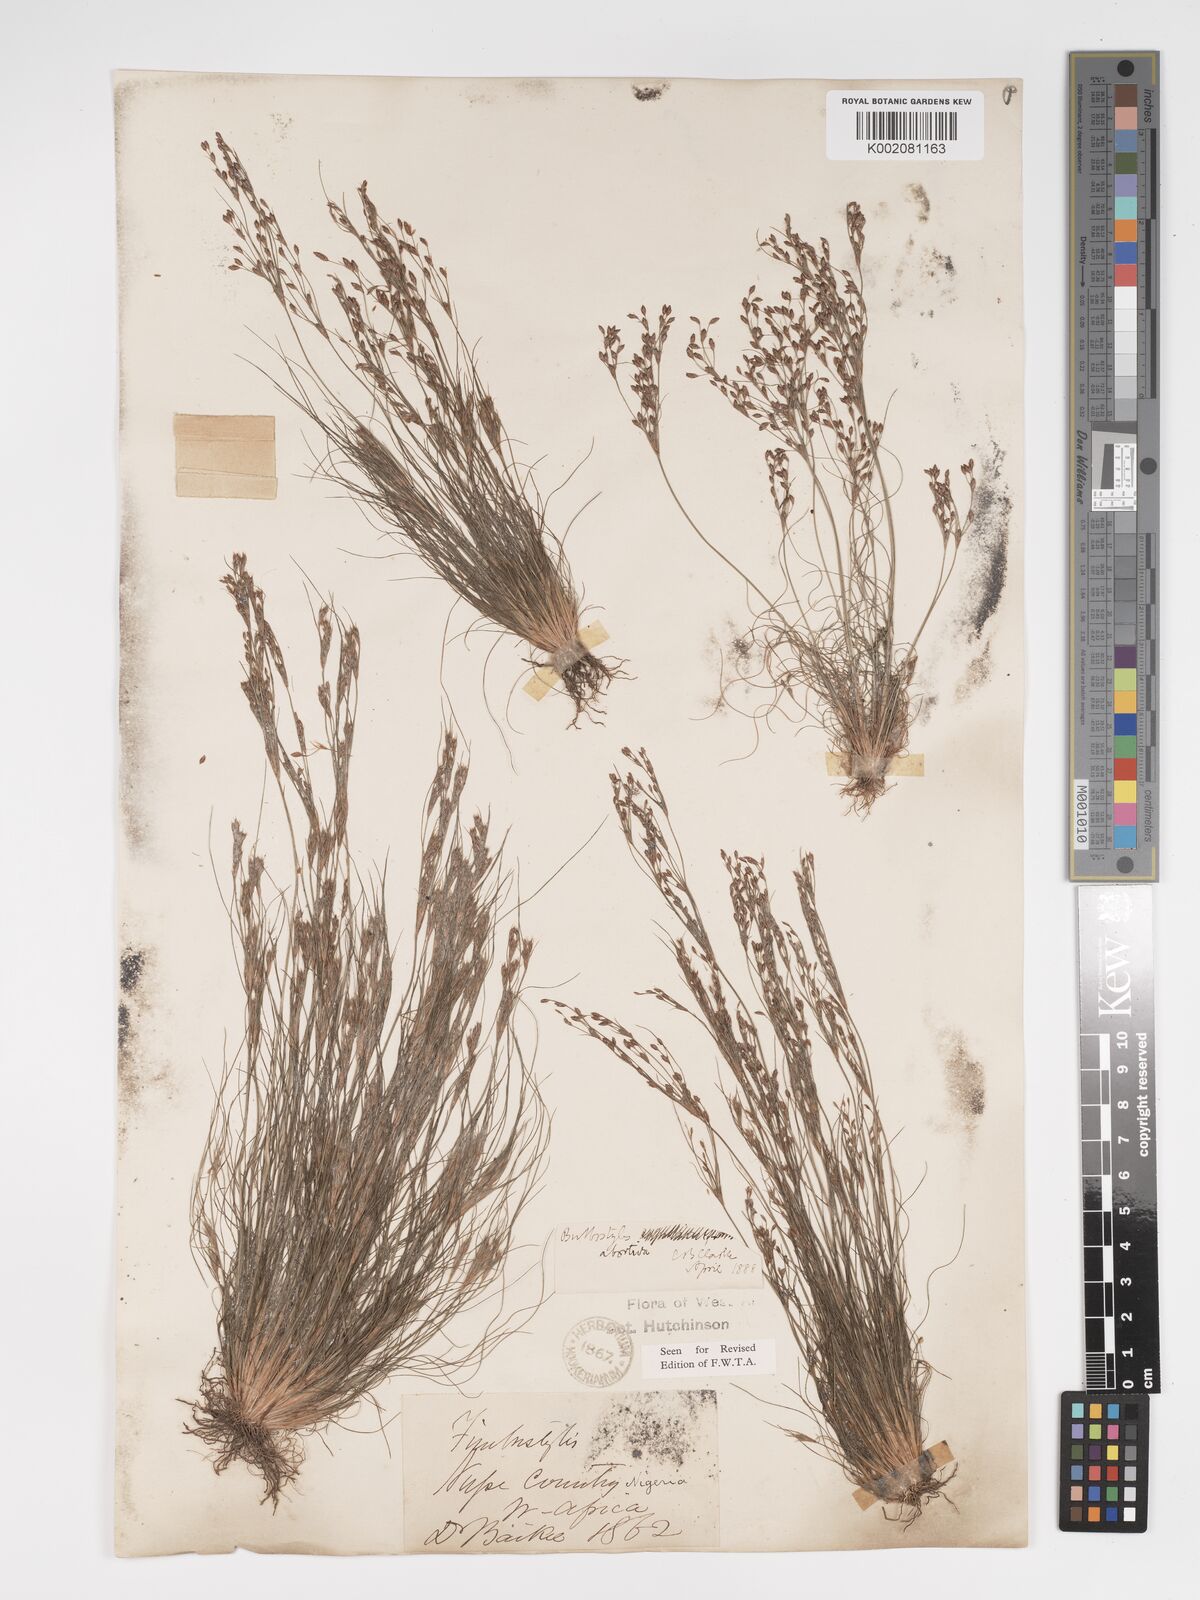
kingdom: Plantae
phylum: Tracheophyta
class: Liliopsida
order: Poales
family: Cyperaceae
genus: Bulbostylis
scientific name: Bulbostylis abortiva
